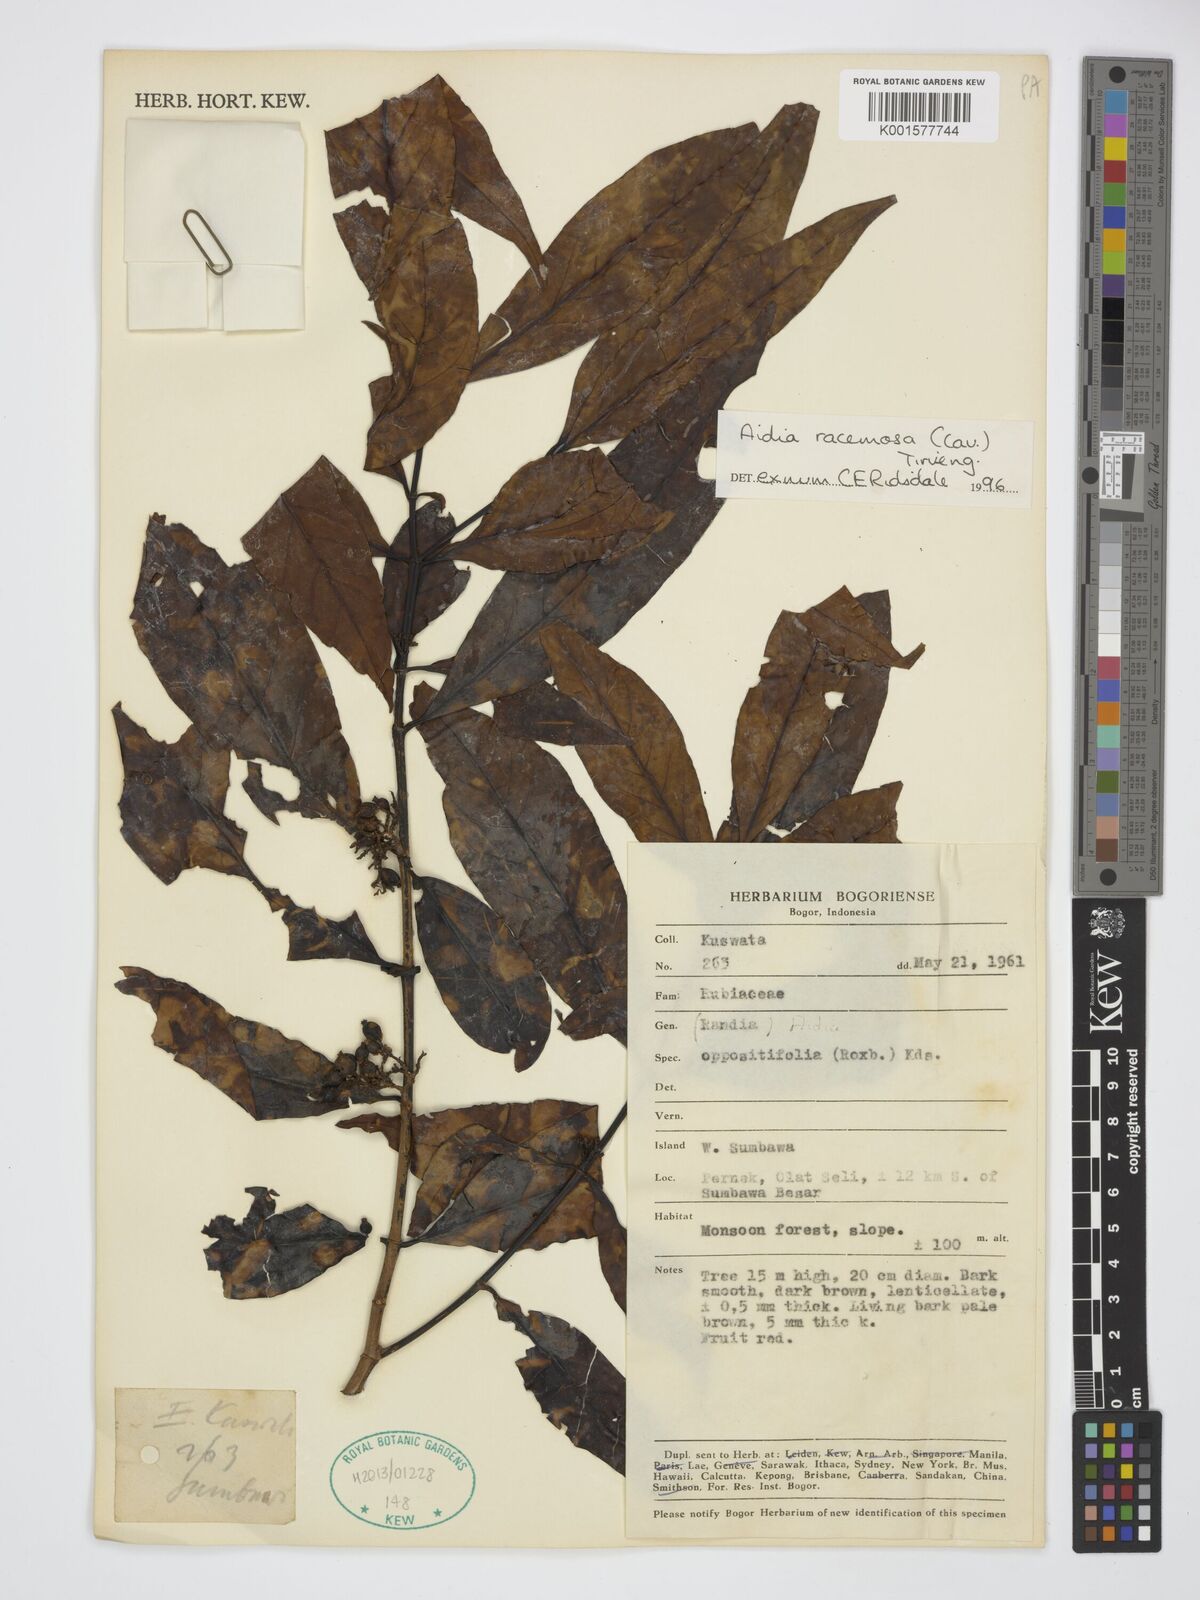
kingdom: Plantae
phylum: Tracheophyta
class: Magnoliopsida
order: Gentianales
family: Rubiaceae
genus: Aidia
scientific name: Aidia racemosa
